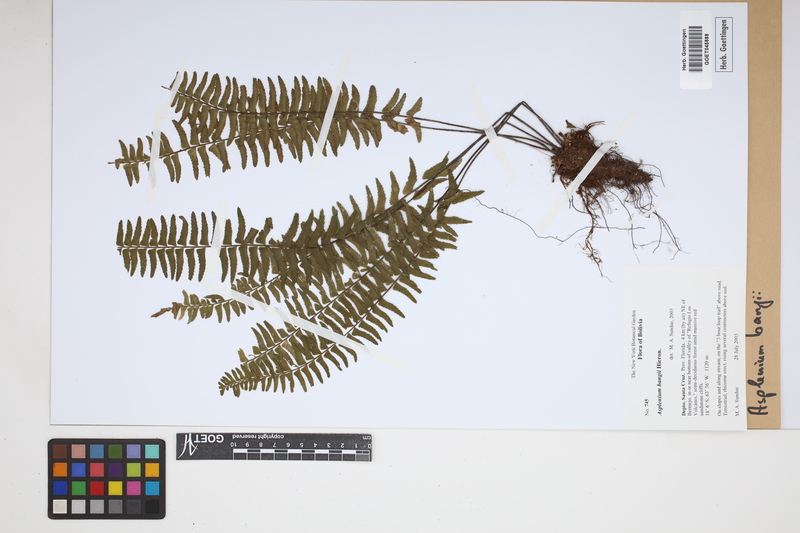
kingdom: Plantae
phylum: Tracheophyta
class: Polypodiopsida
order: Polypodiales
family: Aspleniaceae
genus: Asplenium
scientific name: Asplenium bangii
